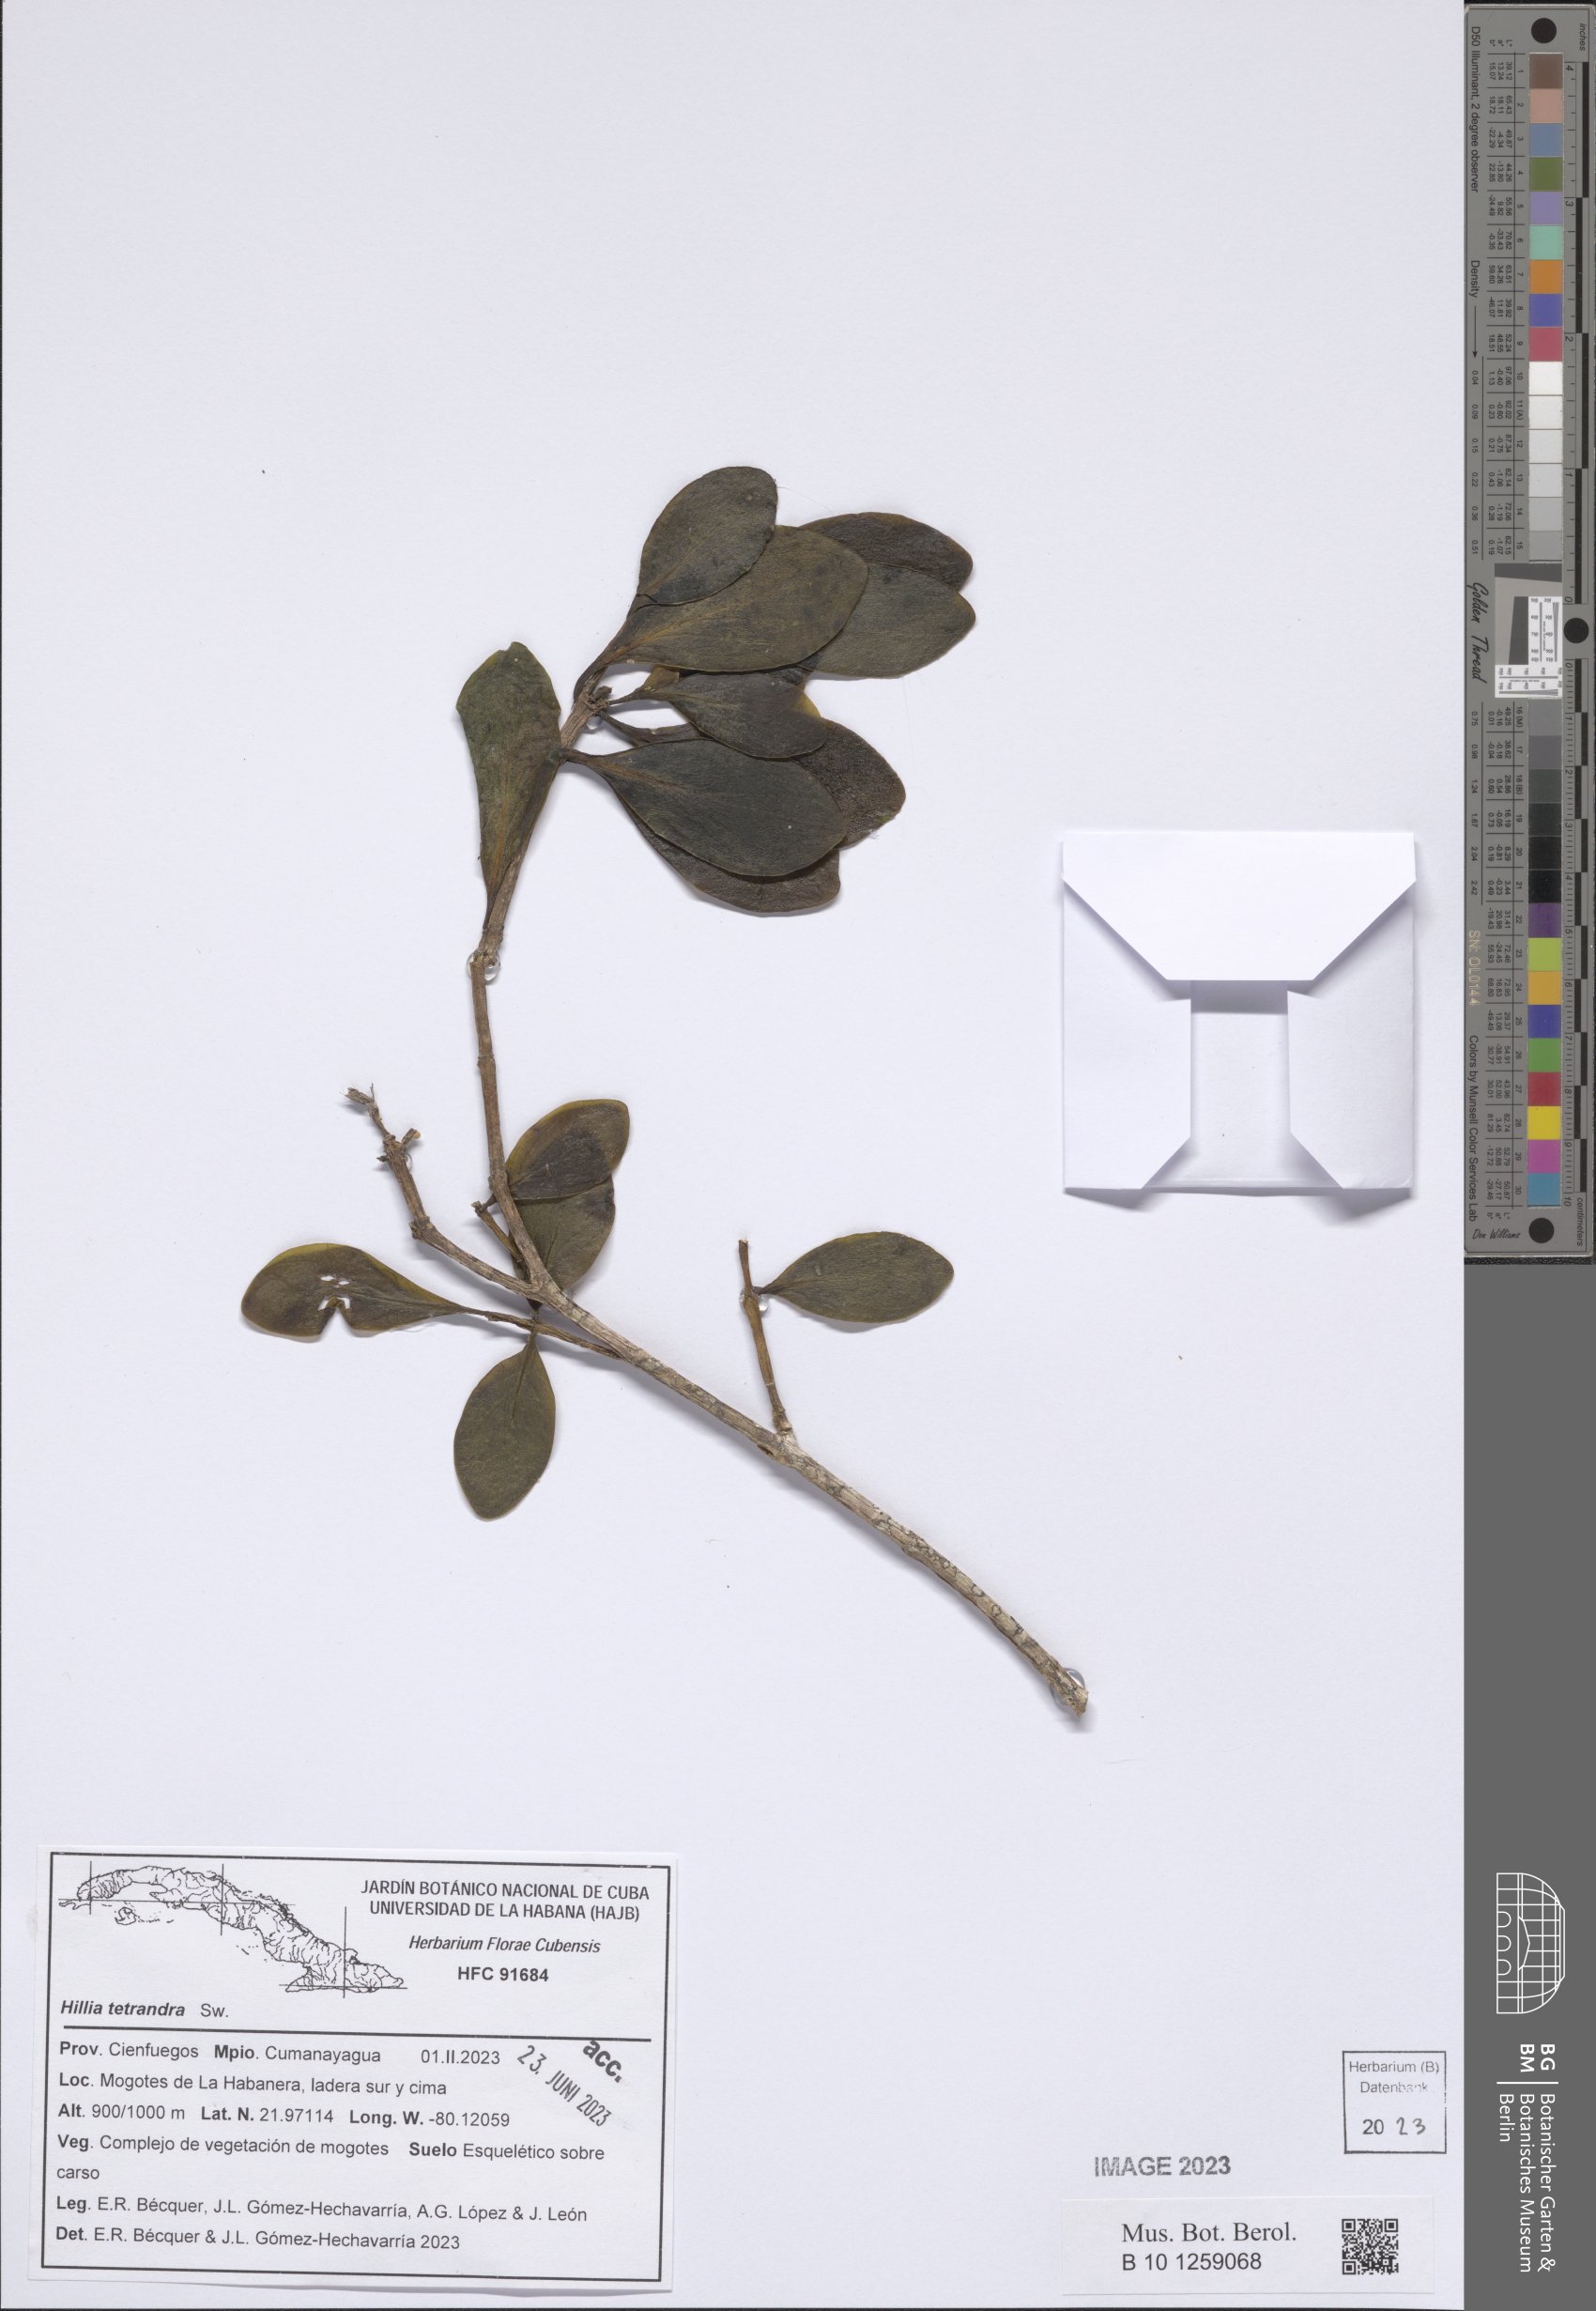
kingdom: Plantae
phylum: Tracheophyta
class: Magnoliopsida
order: Gentianales
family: Rubiaceae
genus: Hillia
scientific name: Hillia tetrandra
